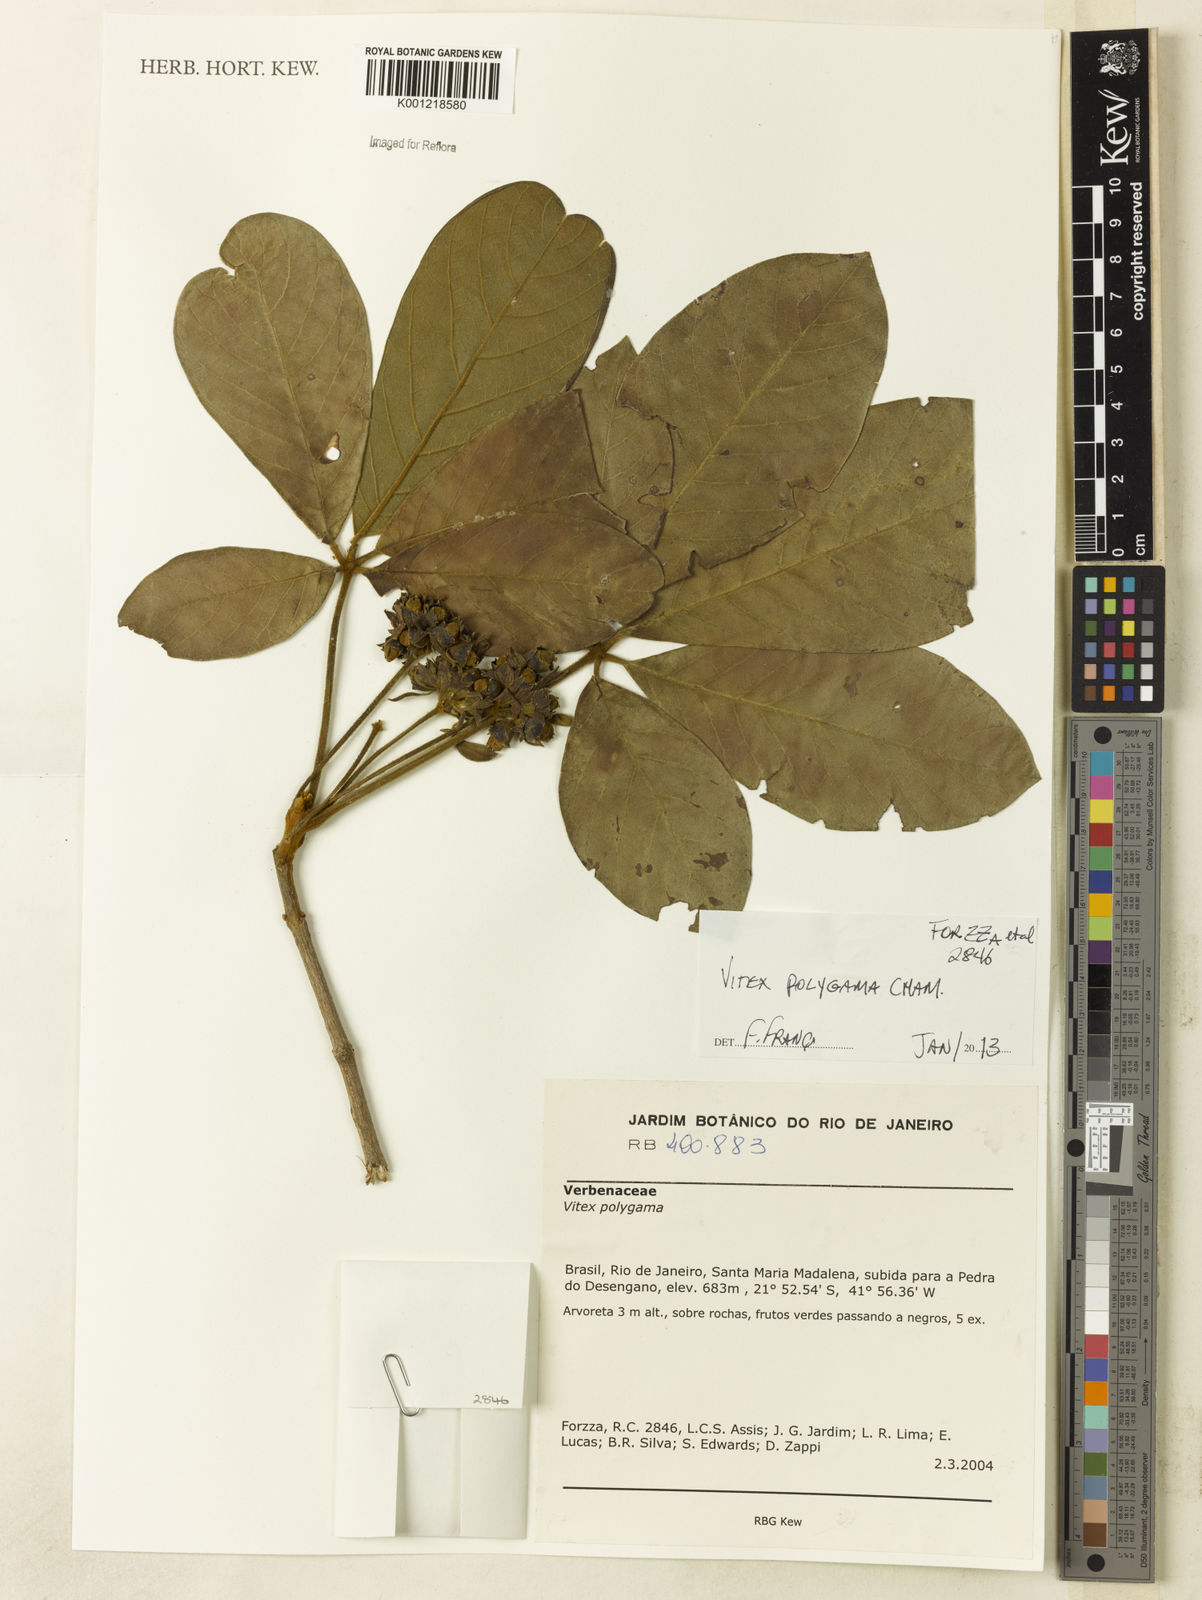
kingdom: Plantae
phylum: Tracheophyta
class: Magnoliopsida
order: Lamiales
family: Lamiaceae
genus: Vitex
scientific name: Vitex polygama
